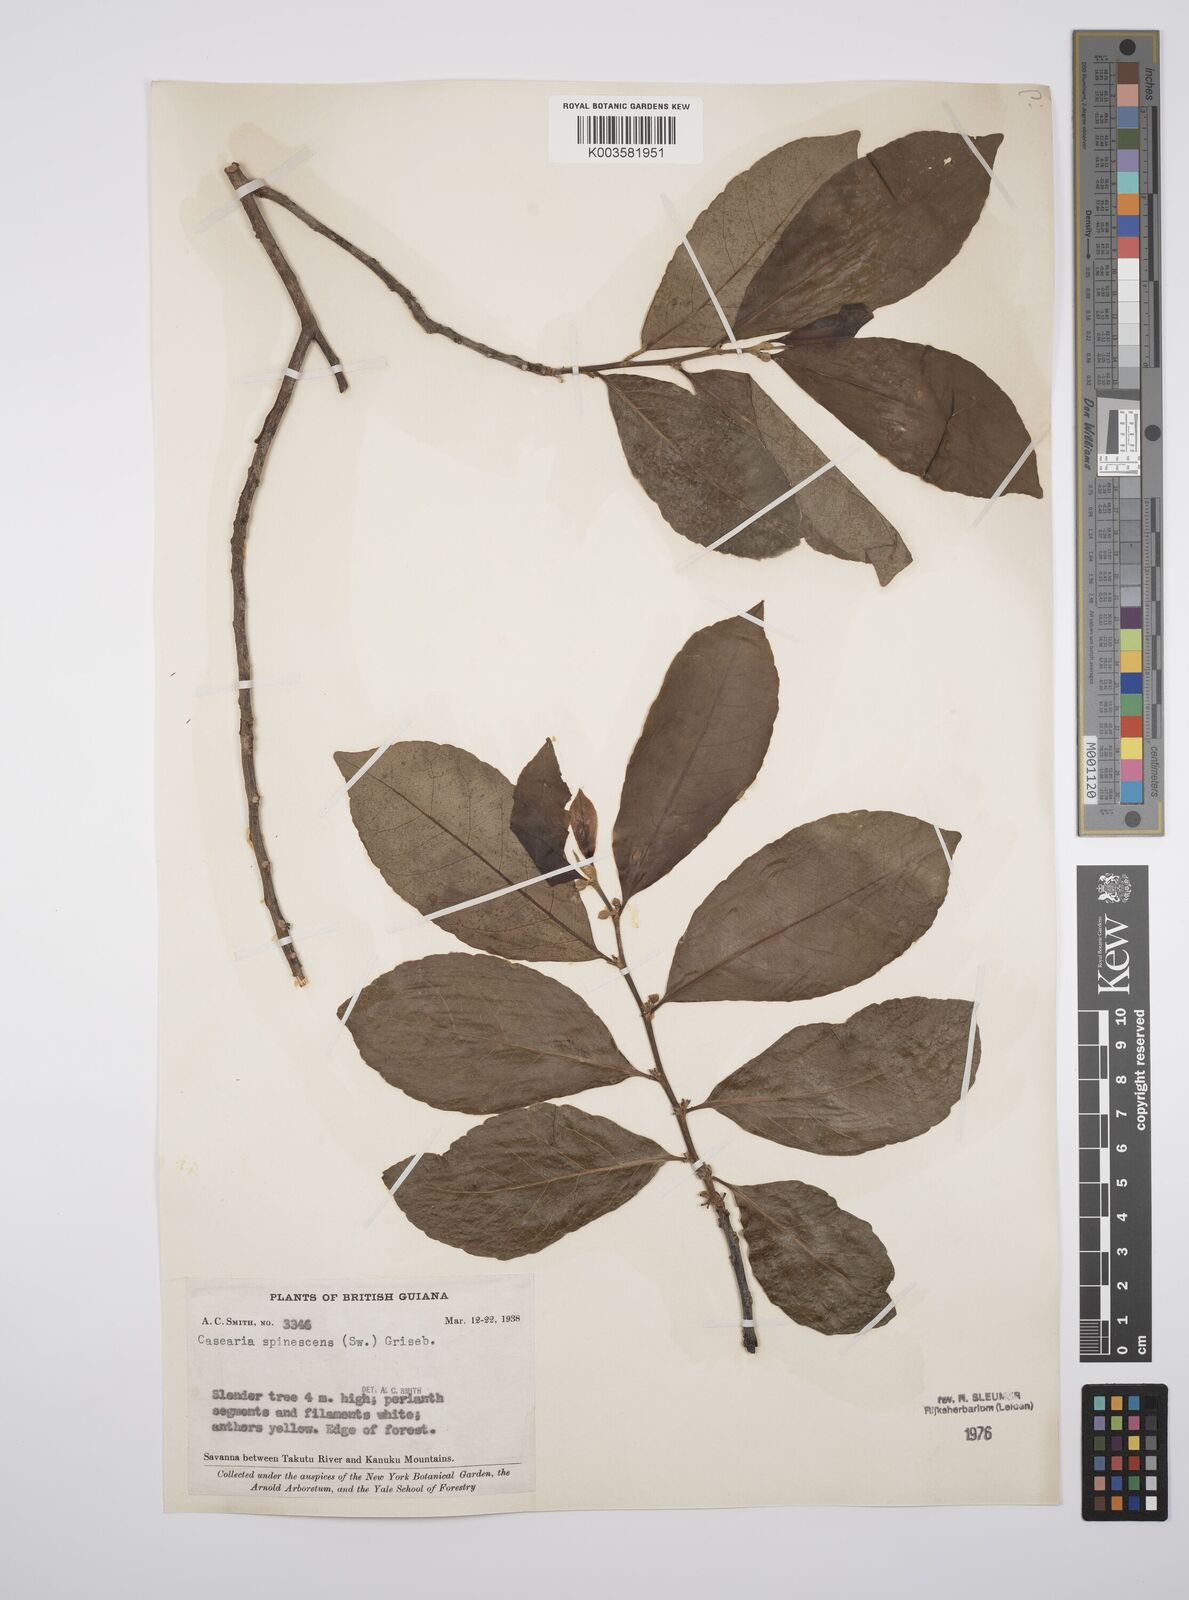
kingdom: Plantae
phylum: Tracheophyta
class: Magnoliopsida
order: Malpighiales
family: Salicaceae
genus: Casearia
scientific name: Casearia spinescens
